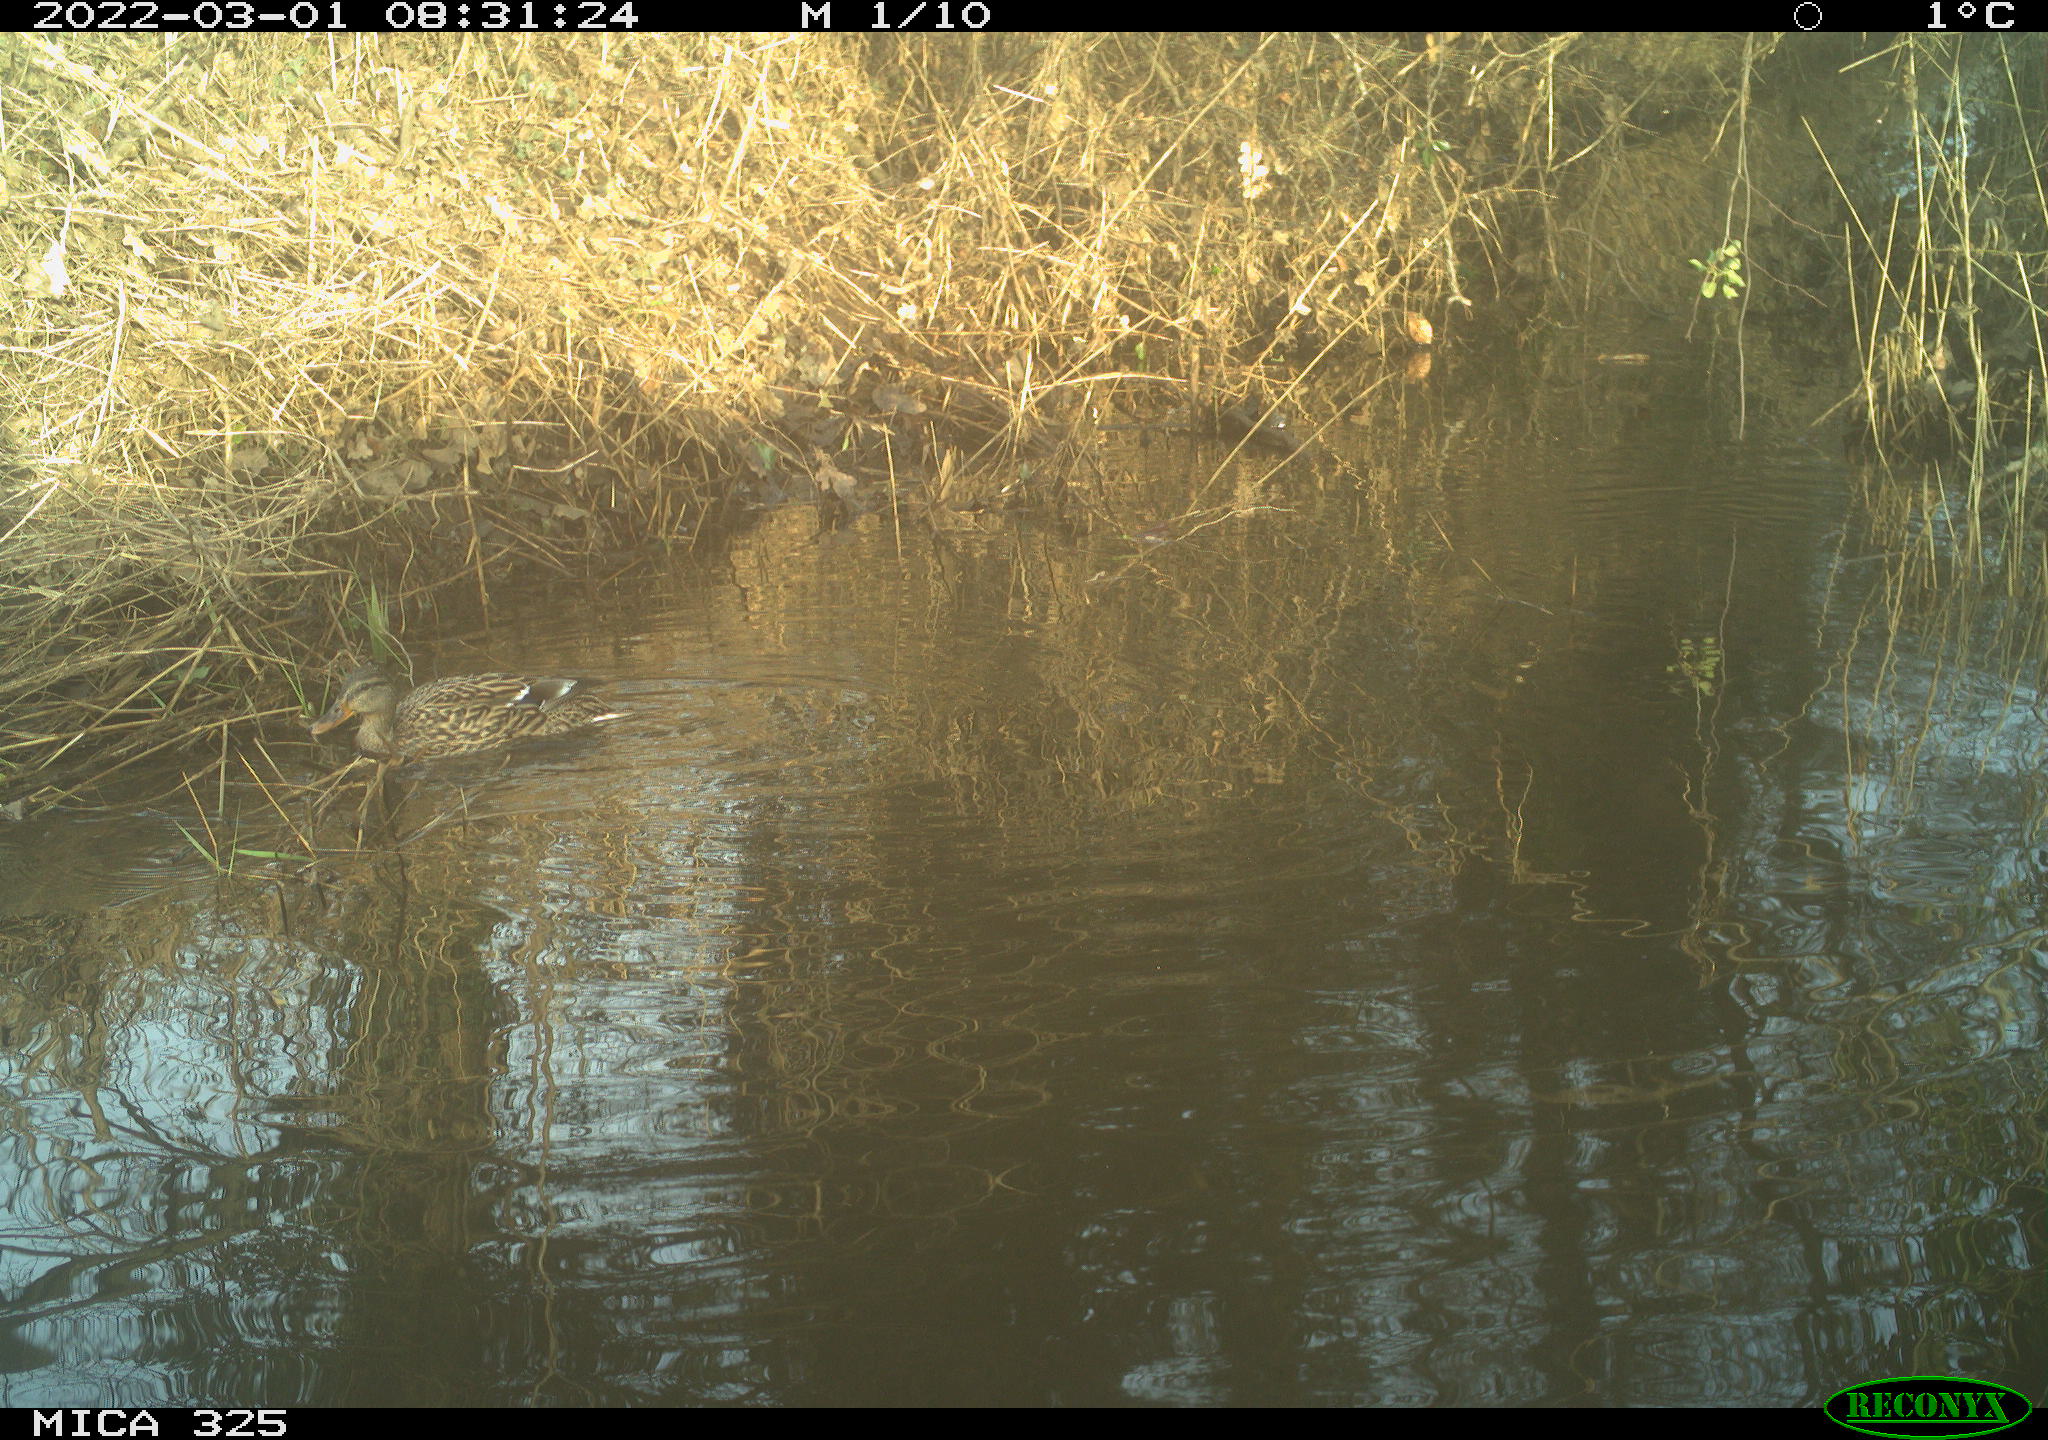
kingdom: Animalia
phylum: Chordata
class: Aves
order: Anseriformes
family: Anatidae
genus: Anas
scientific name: Anas platyrhynchos
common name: Mallard
